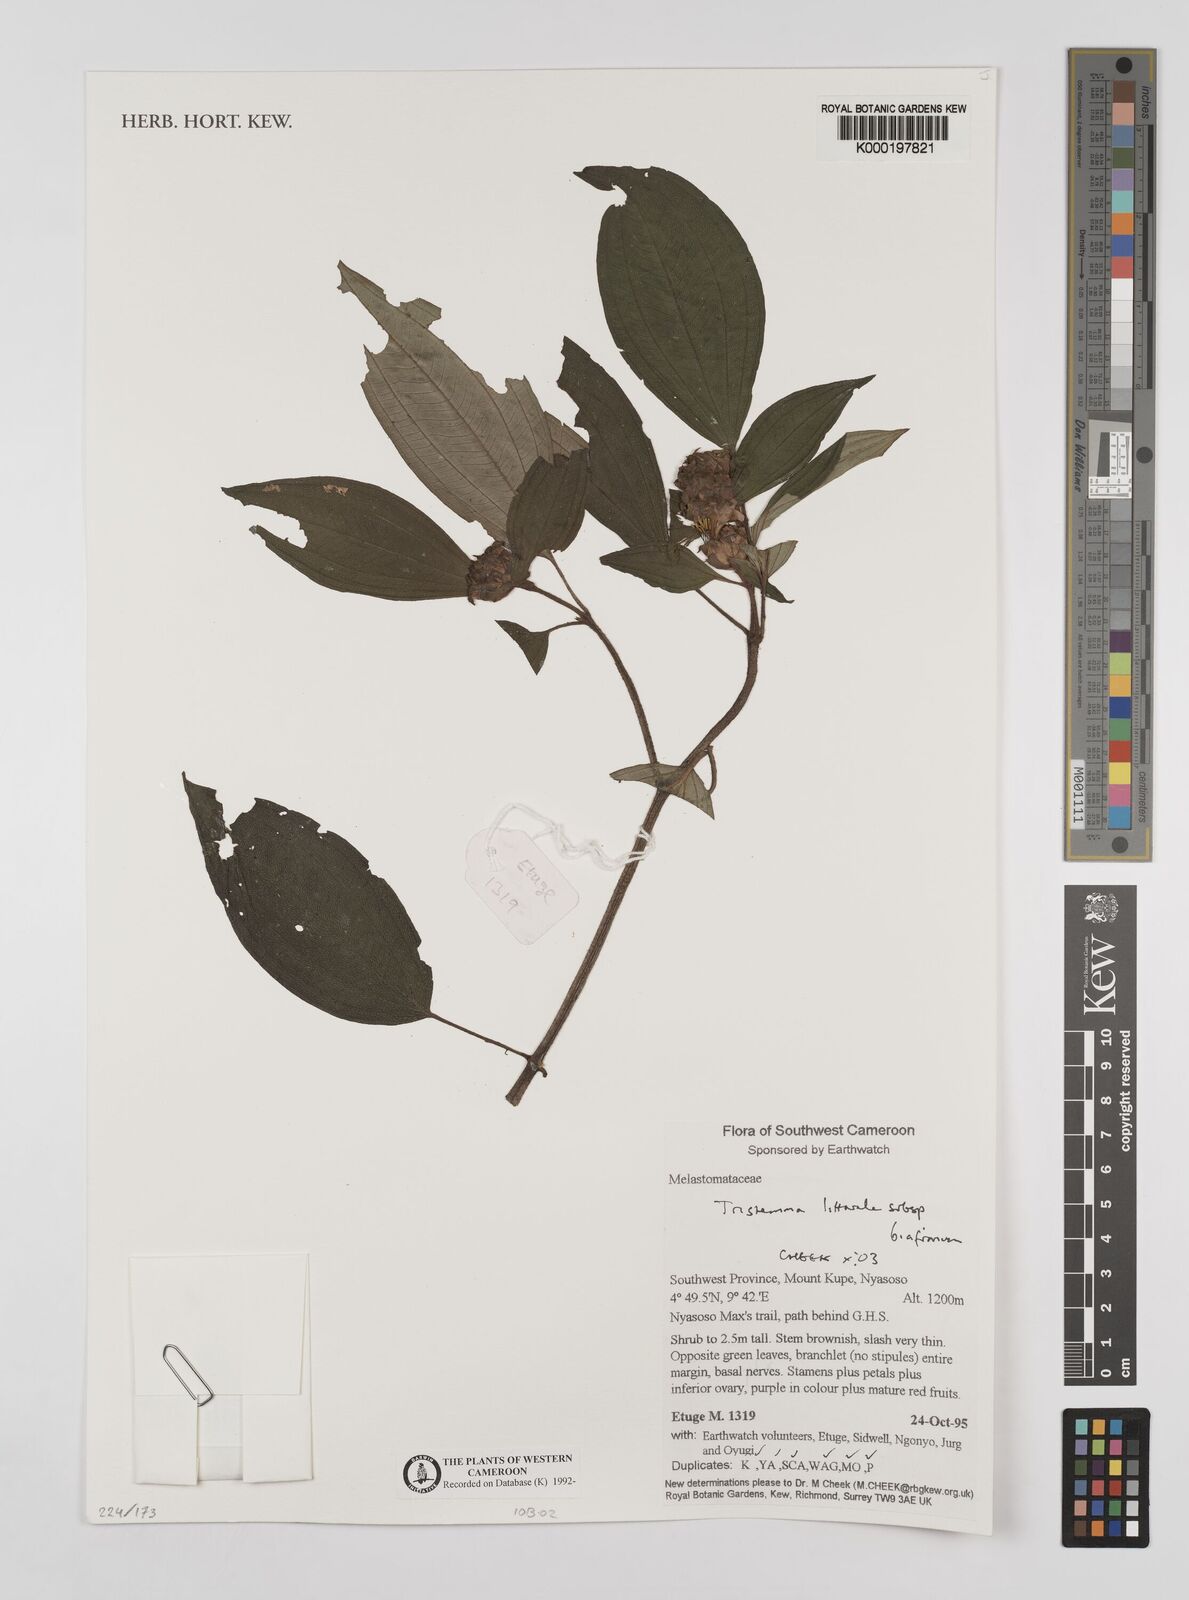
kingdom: Plantae
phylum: Tracheophyta
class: Magnoliopsida
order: Myrtales
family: Melastomataceae
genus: Tristemma
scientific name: Tristemma littorale
